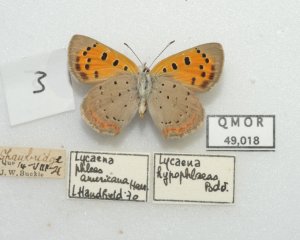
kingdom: Animalia
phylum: Arthropoda
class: Insecta
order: Lepidoptera
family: Lycaenidae
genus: Lycaena
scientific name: Lycaena phlaeas
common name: American Copper
